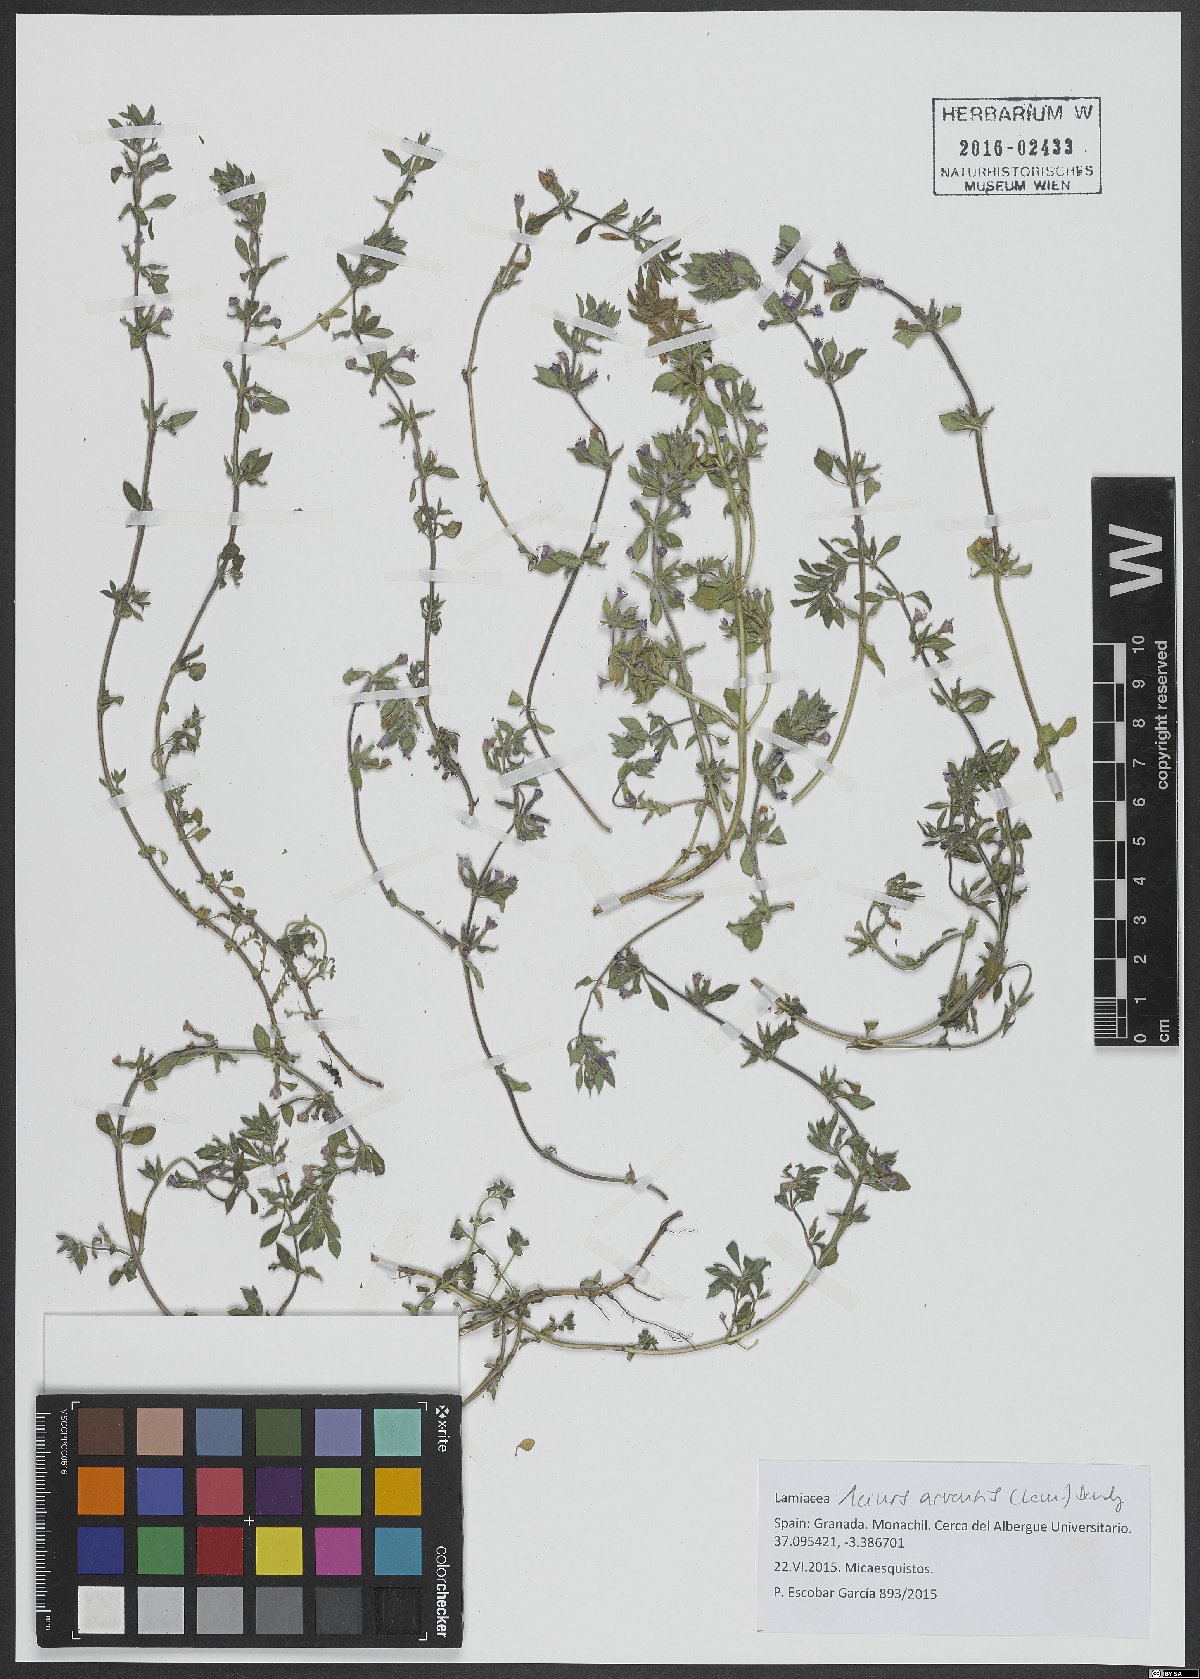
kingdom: Plantae
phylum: Tracheophyta
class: Magnoliopsida
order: Lamiales
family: Lamiaceae
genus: Clinopodium
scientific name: Clinopodium acinos
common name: Basil thyme
